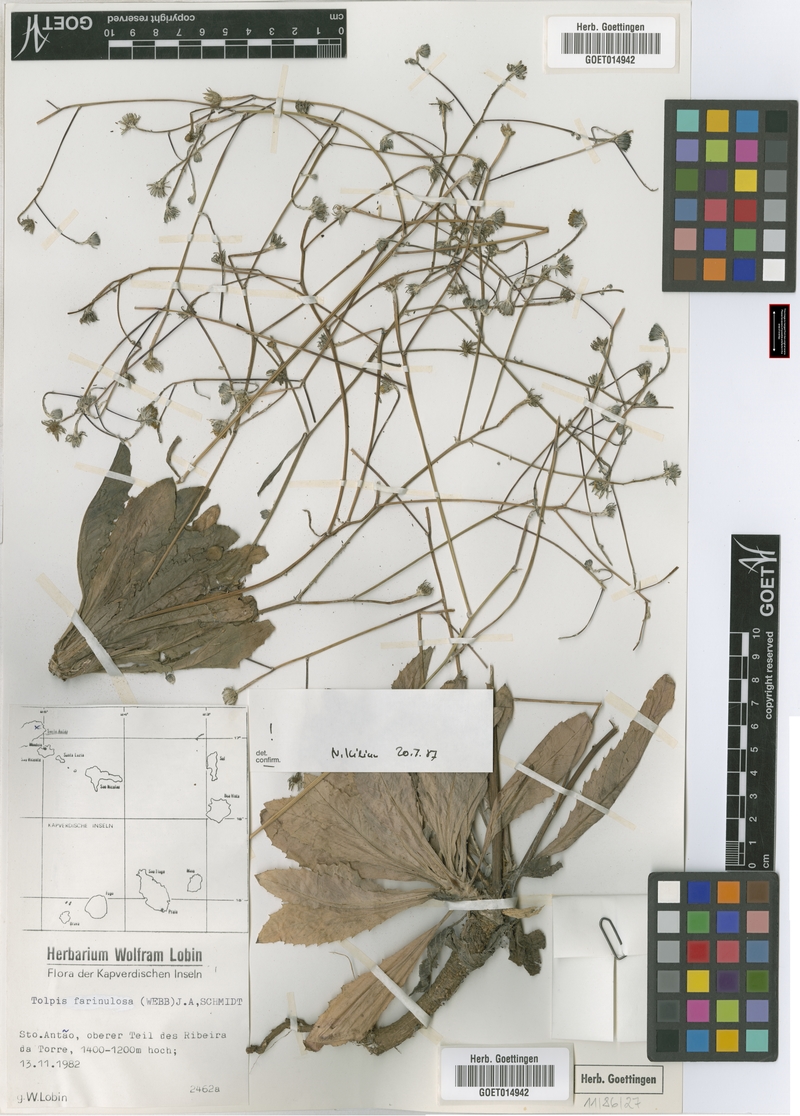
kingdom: Plantae
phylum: Tracheophyta
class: Magnoliopsida
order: Asterales
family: Asteraceae
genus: Tolpis
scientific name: Tolpis farinulosa
